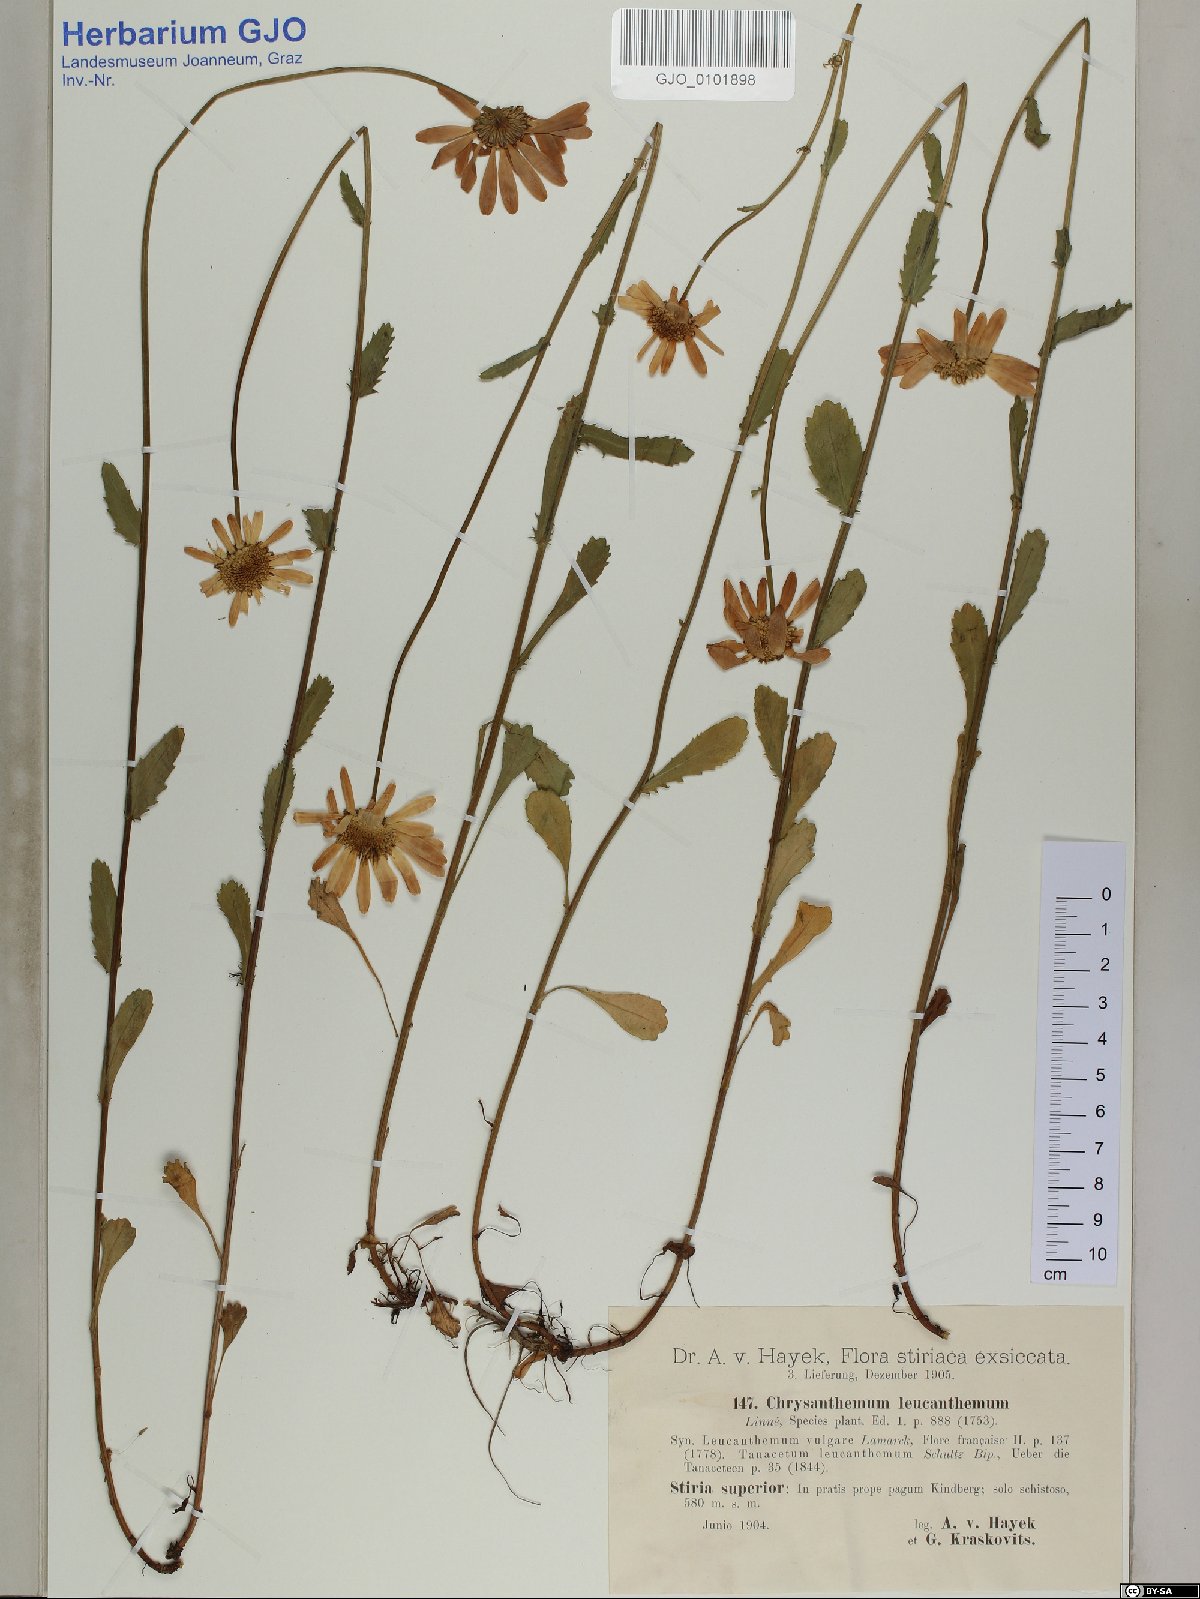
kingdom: Plantae
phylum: Tracheophyta
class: Magnoliopsida
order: Asterales
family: Asteraceae
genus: Leucanthemum
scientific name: Leucanthemum vulgare
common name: Oxeye daisy
